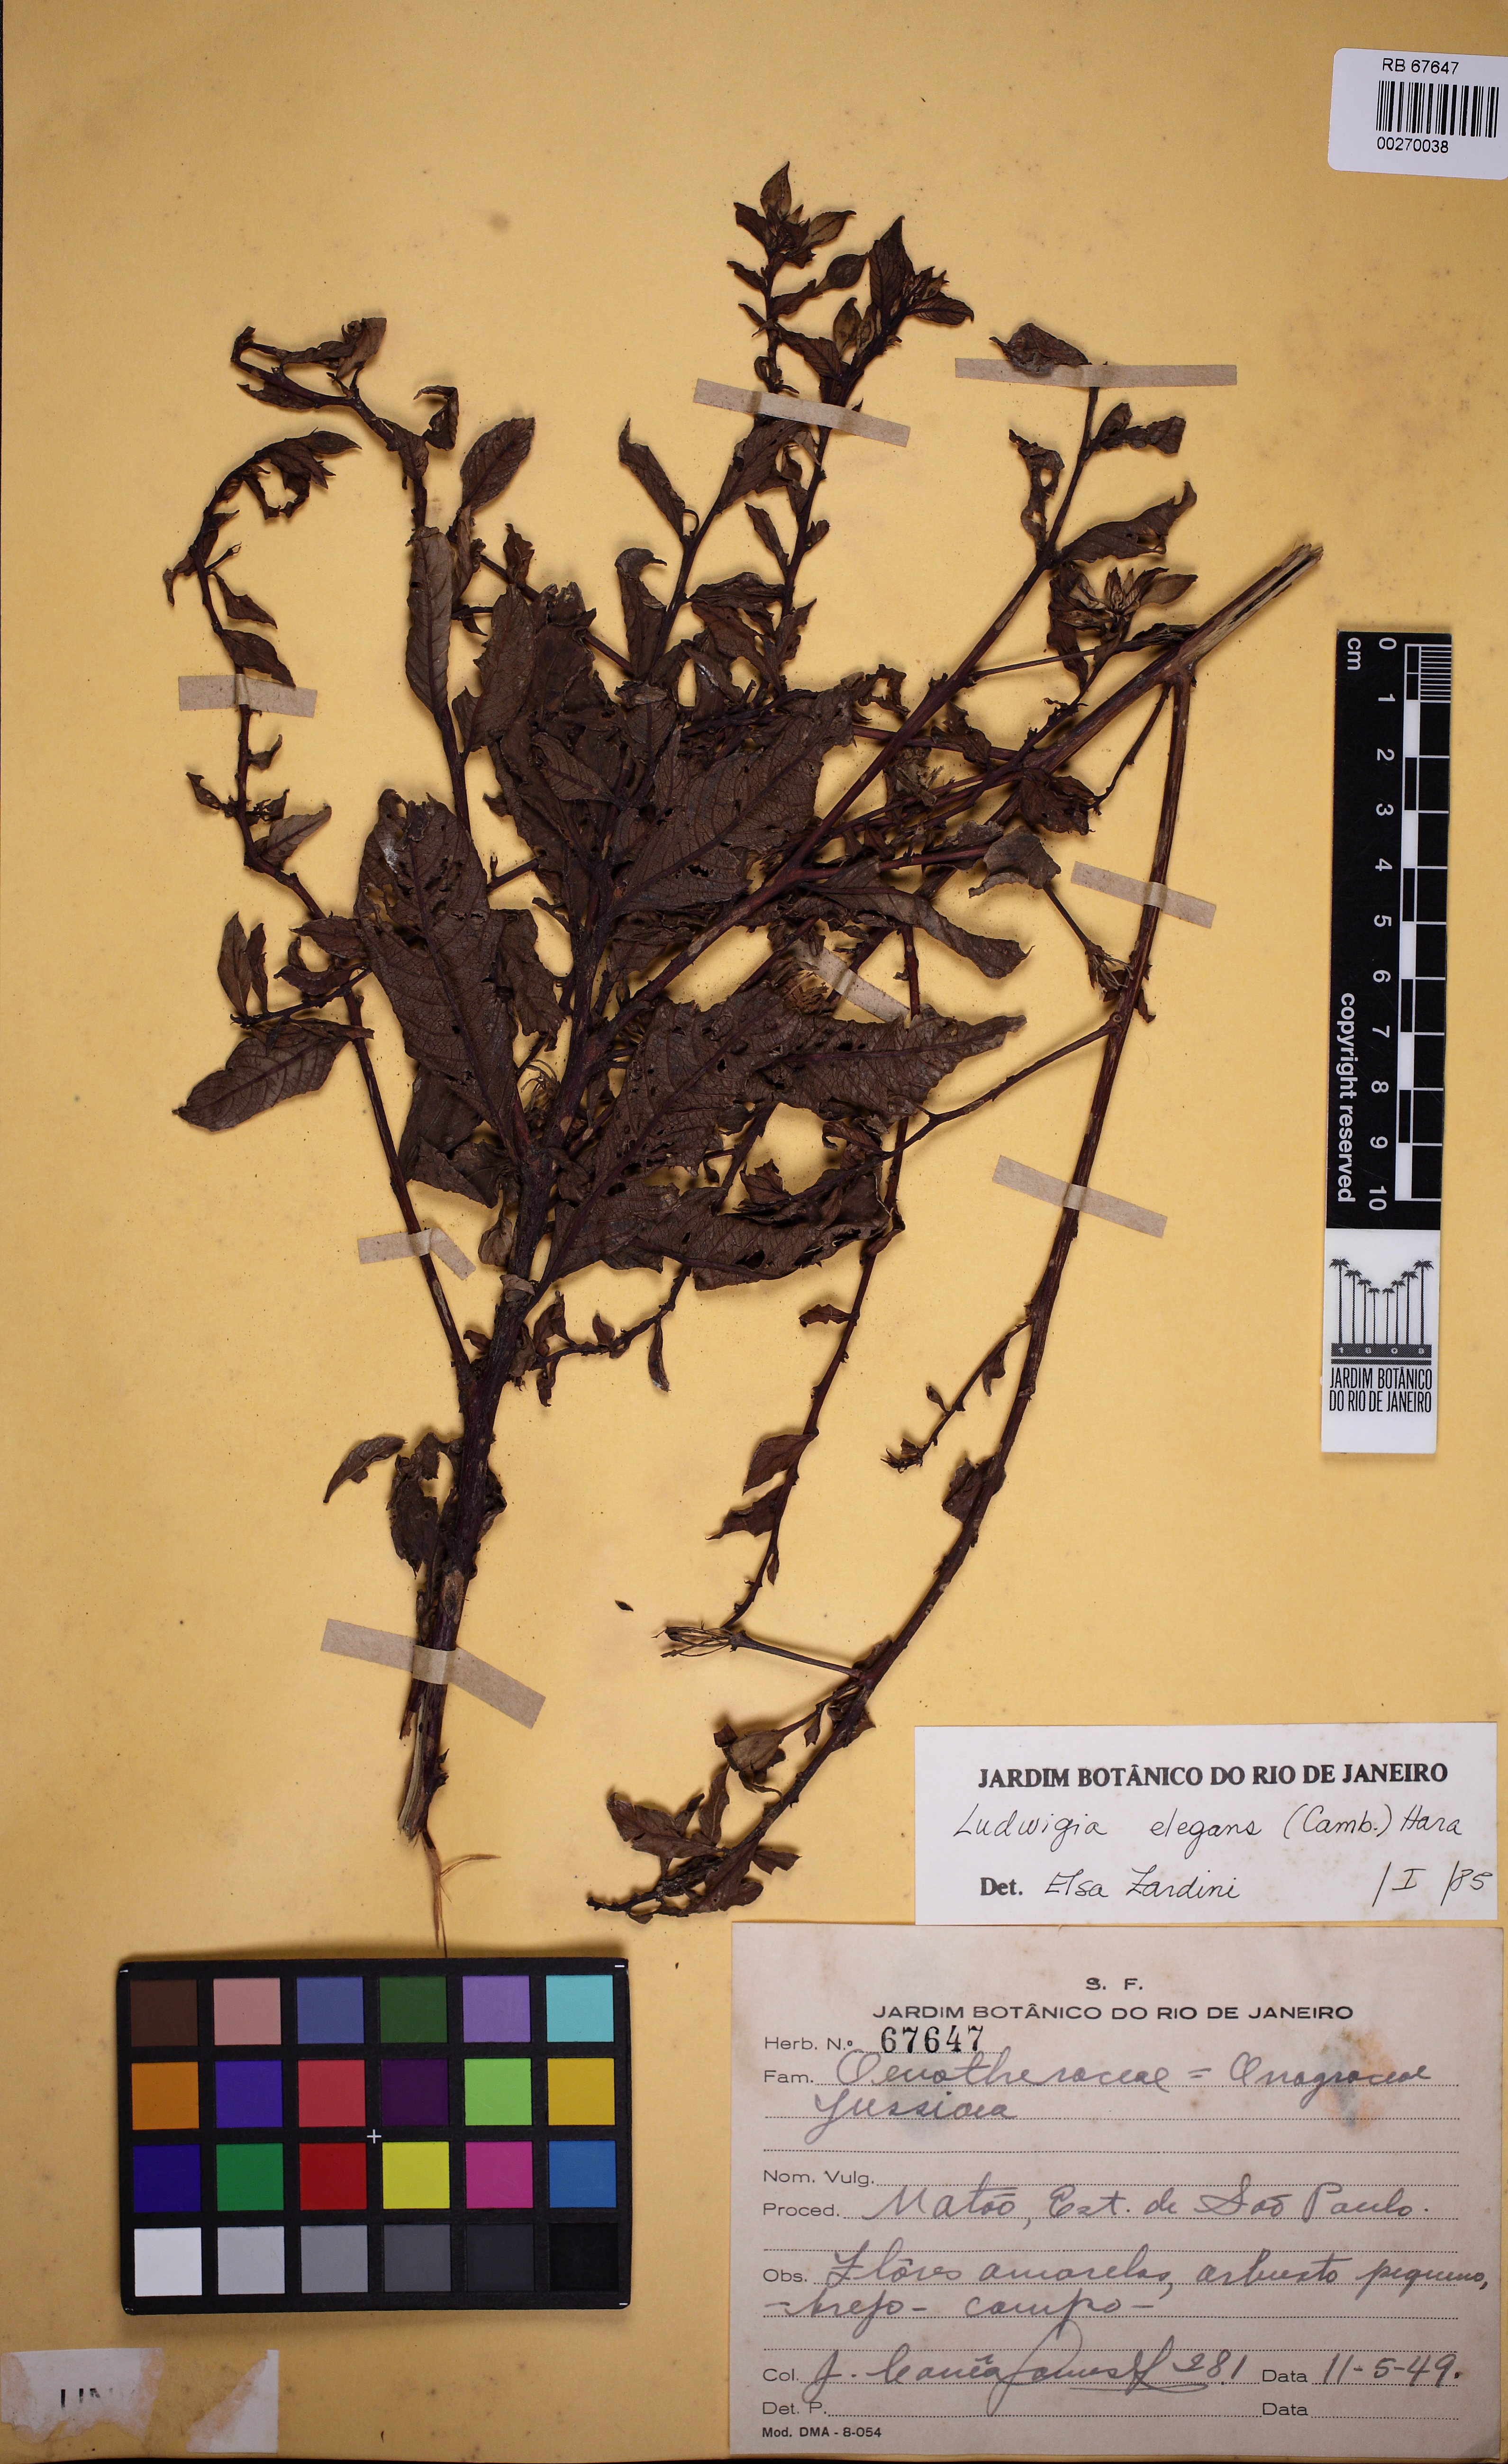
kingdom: Plantae
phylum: Tracheophyta
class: Magnoliopsida
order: Myrtales
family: Onagraceae
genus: Ludwigia
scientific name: Ludwigia elegans
